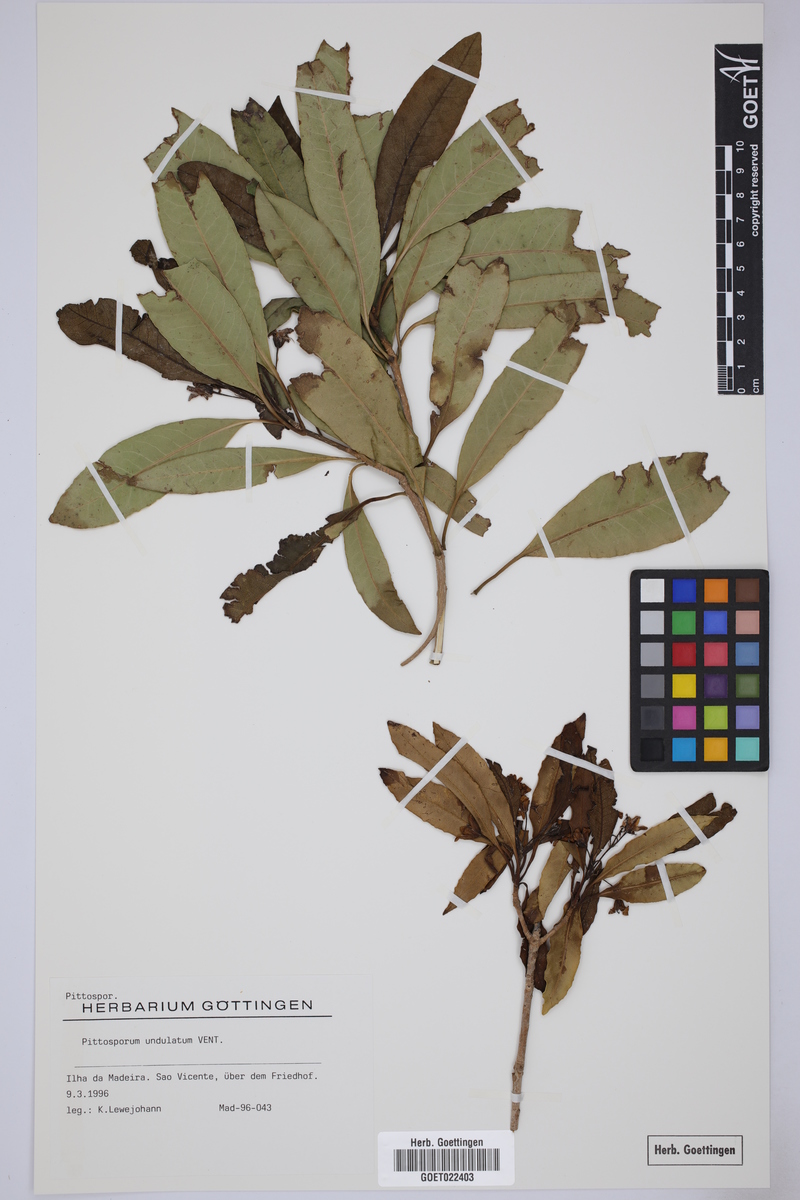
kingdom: Plantae
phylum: Tracheophyta
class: Magnoliopsida
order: Apiales
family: Pittosporaceae
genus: Pittosporum
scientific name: Pittosporum undulatum
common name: Australian cheesewood
